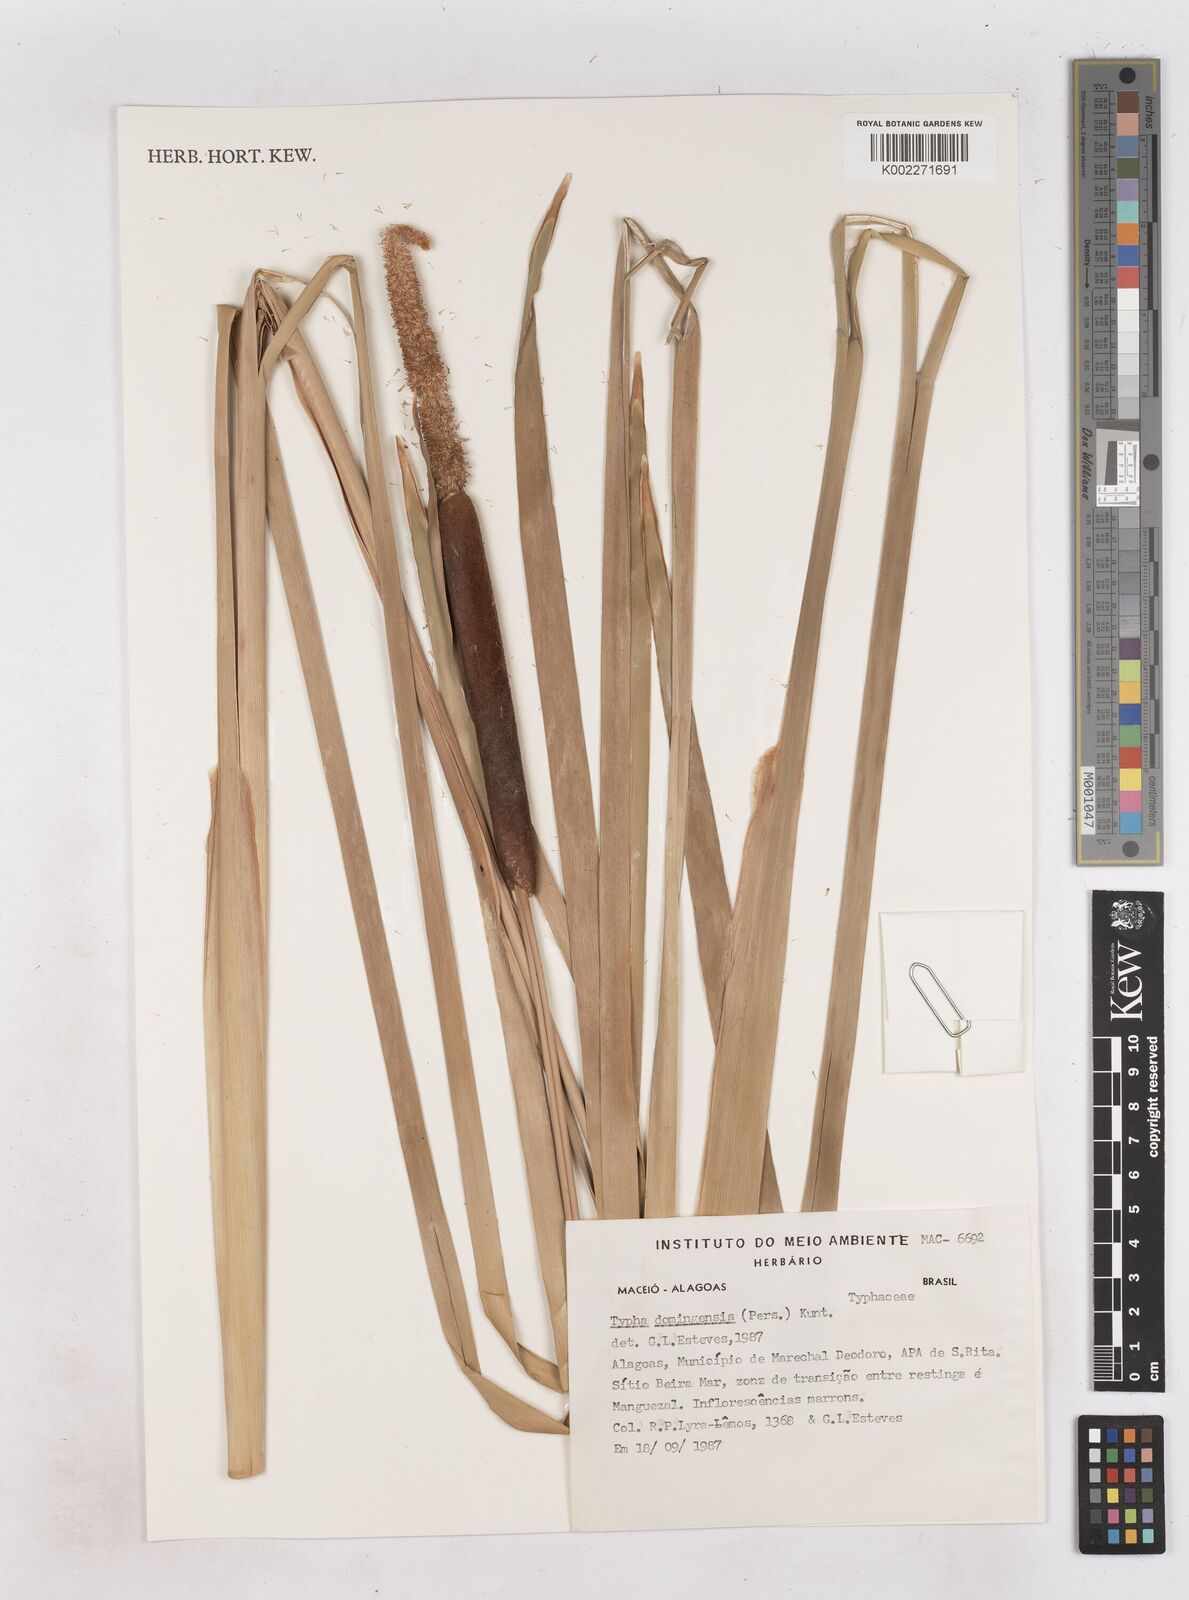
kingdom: Plantae
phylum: Tracheophyta
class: Liliopsida
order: Poales
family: Typhaceae
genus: Typha
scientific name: Typha domingensis
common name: Southern cattail
